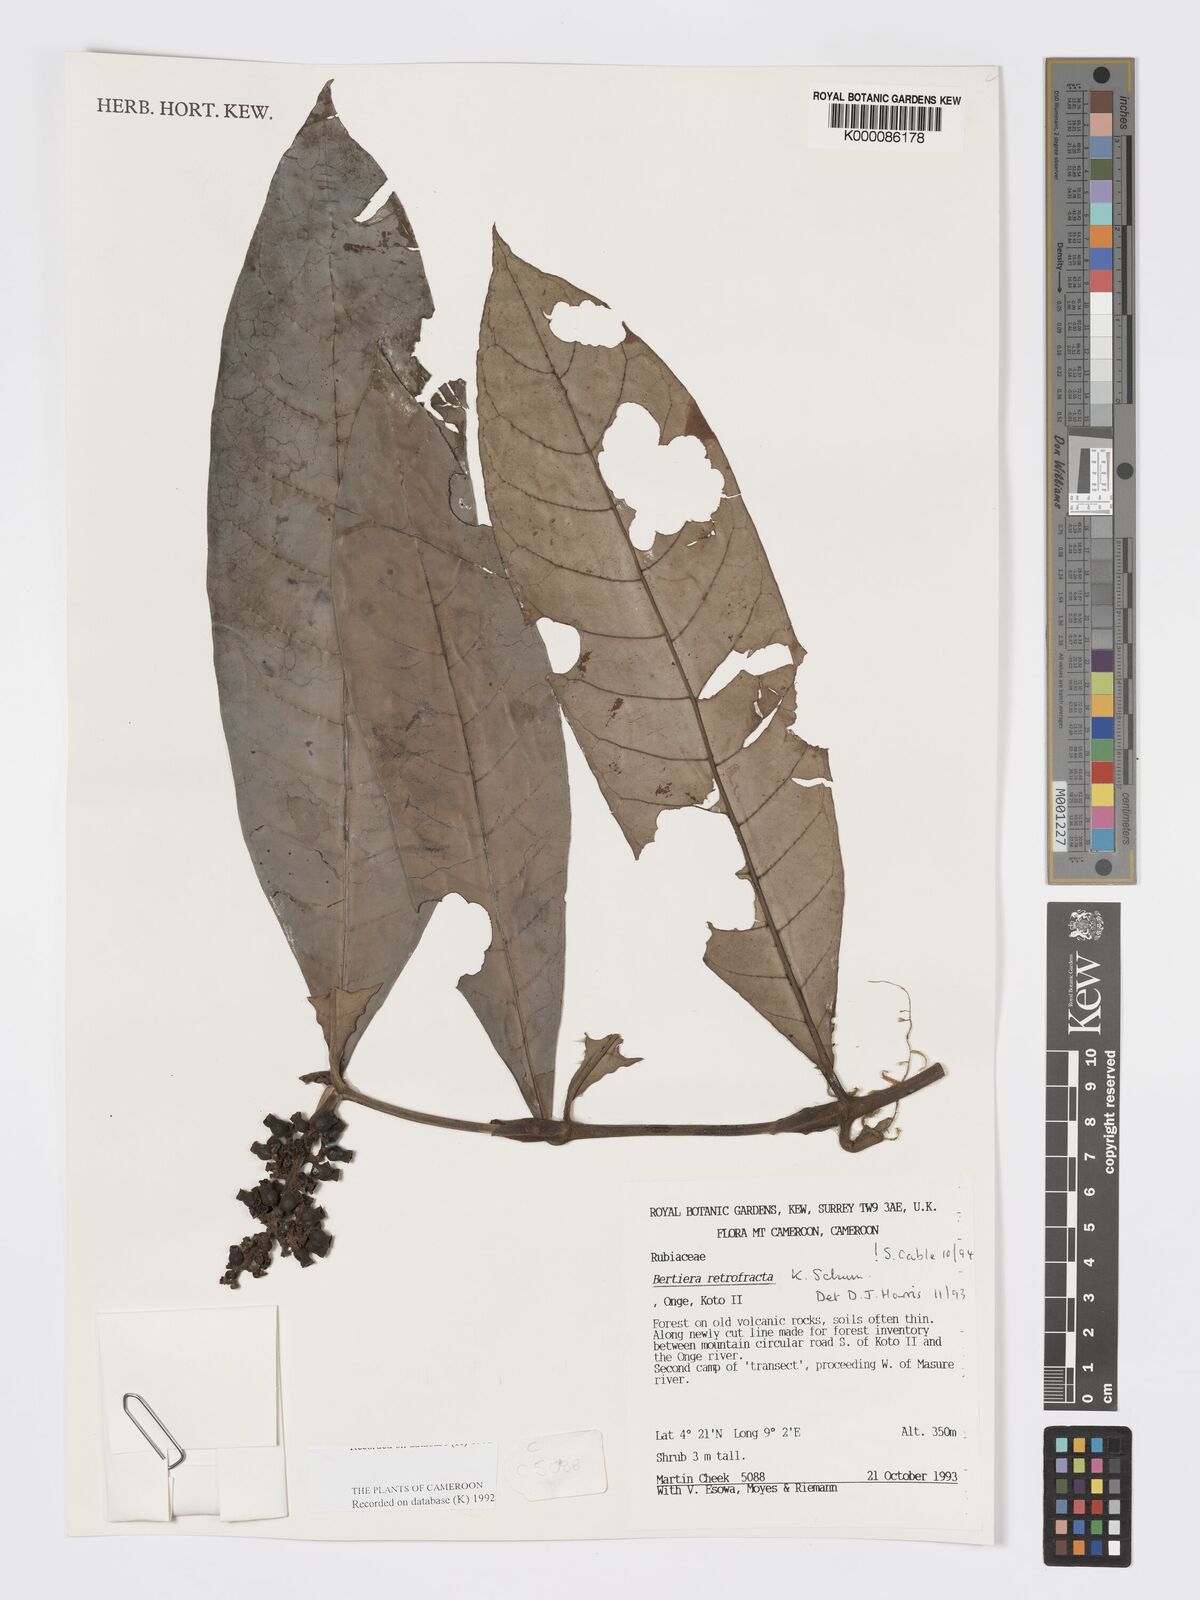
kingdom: Plantae
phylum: Tracheophyta
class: Magnoliopsida
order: Gentianales
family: Rubiaceae
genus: Bertiera
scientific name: Bertiera retrofracta
